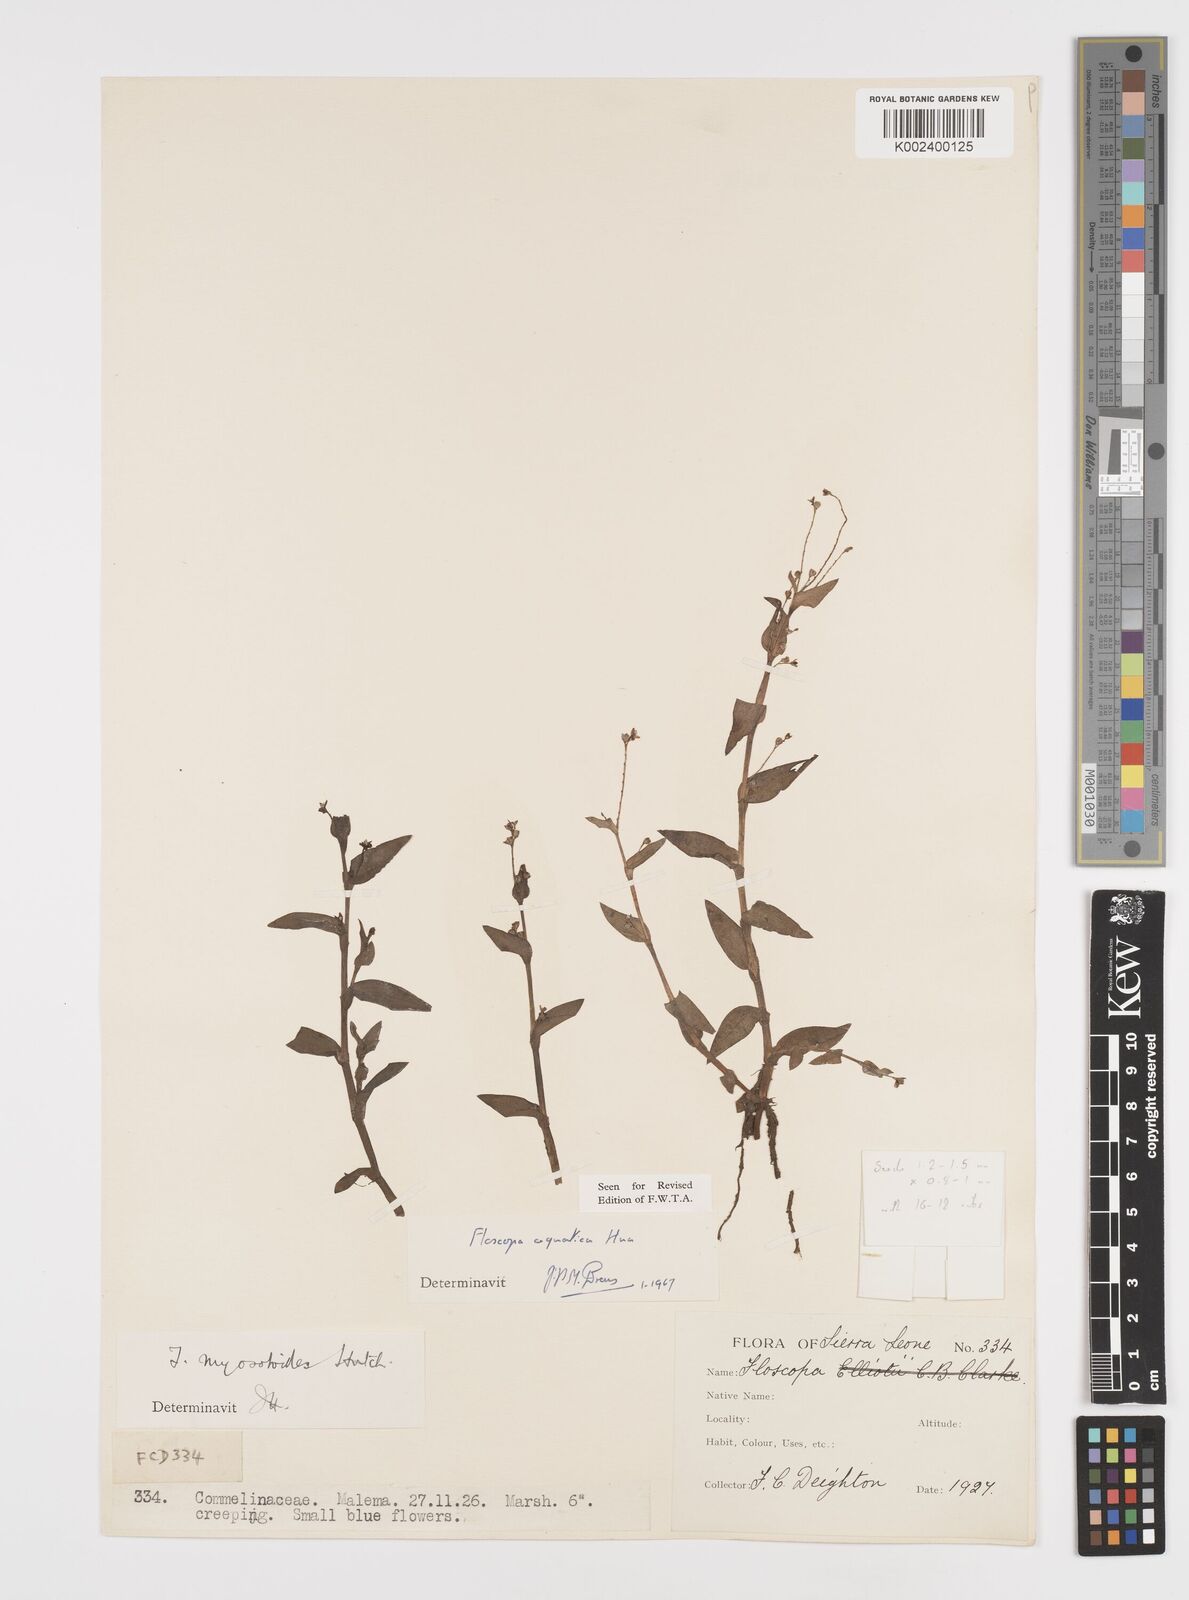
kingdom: Plantae
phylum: Tracheophyta
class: Liliopsida
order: Commelinales
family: Commelinaceae
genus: Floscopa
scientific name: Floscopa aquatica
